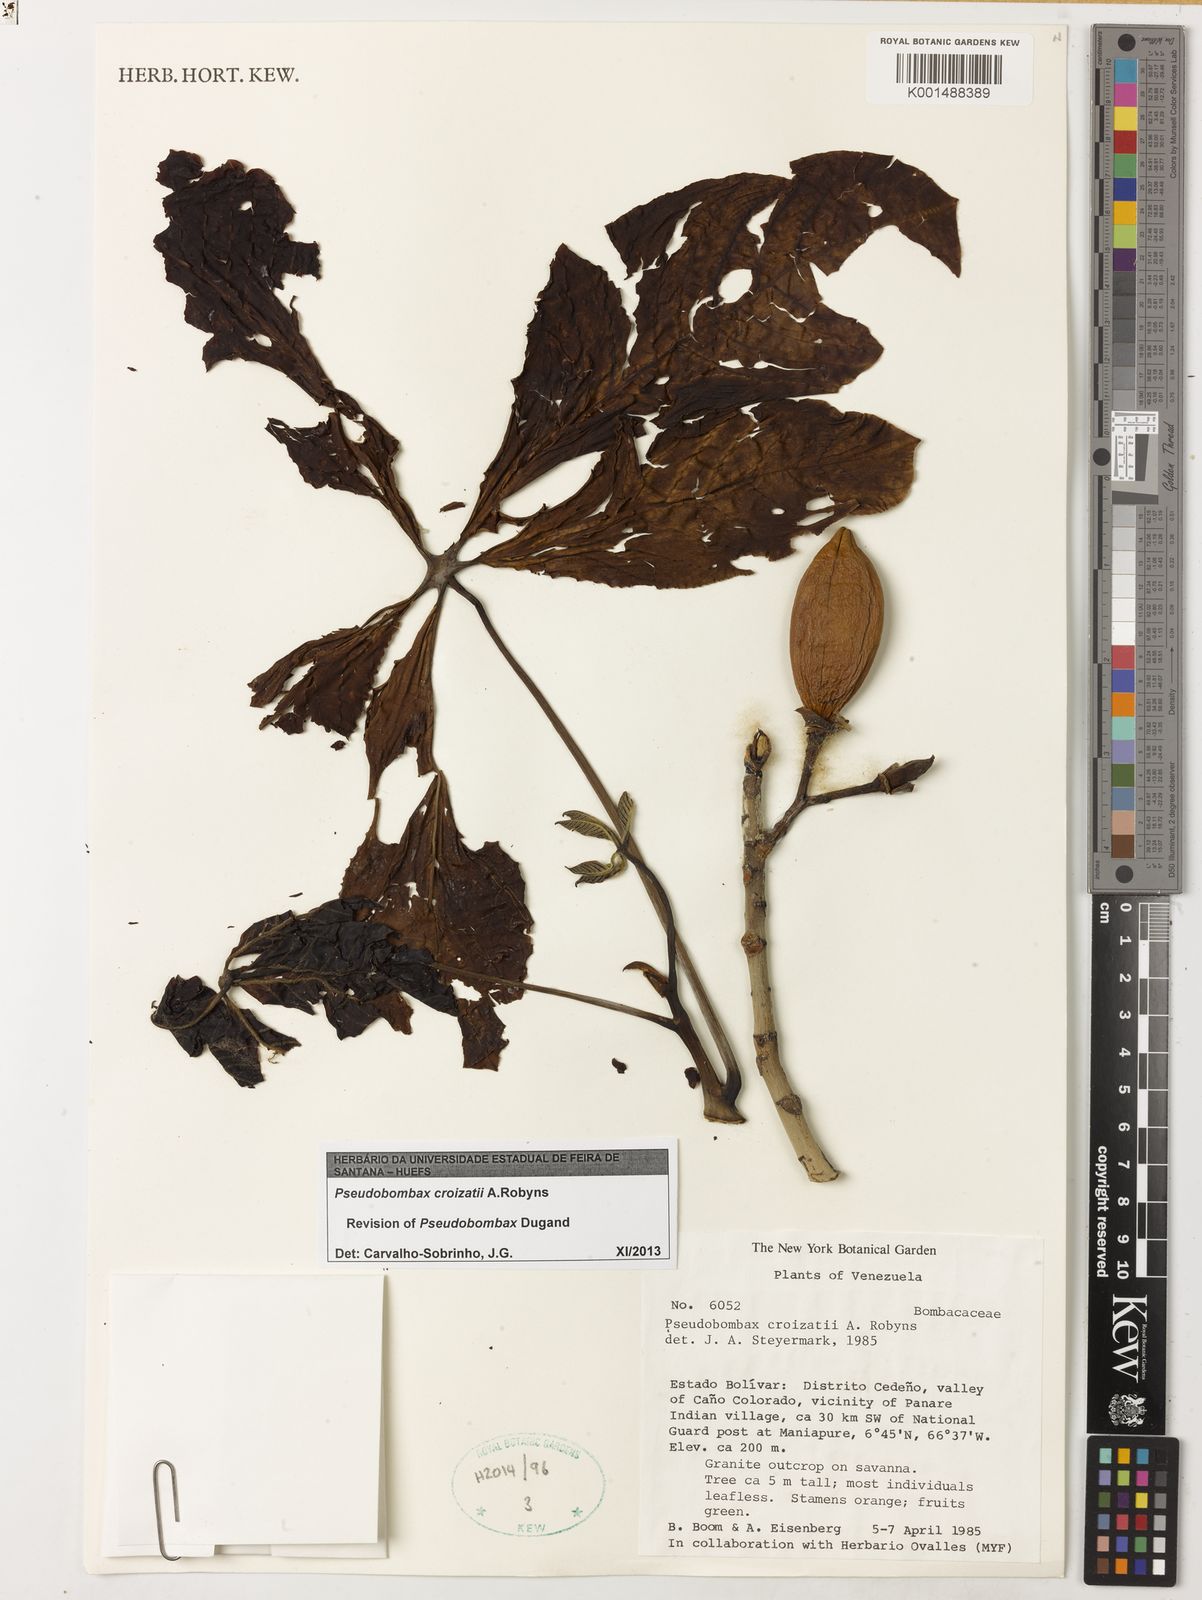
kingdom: Plantae
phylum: Tracheophyta
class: Magnoliopsida
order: Malvales
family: Malvaceae
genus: Pseudobombax
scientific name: Pseudobombax croizatii
